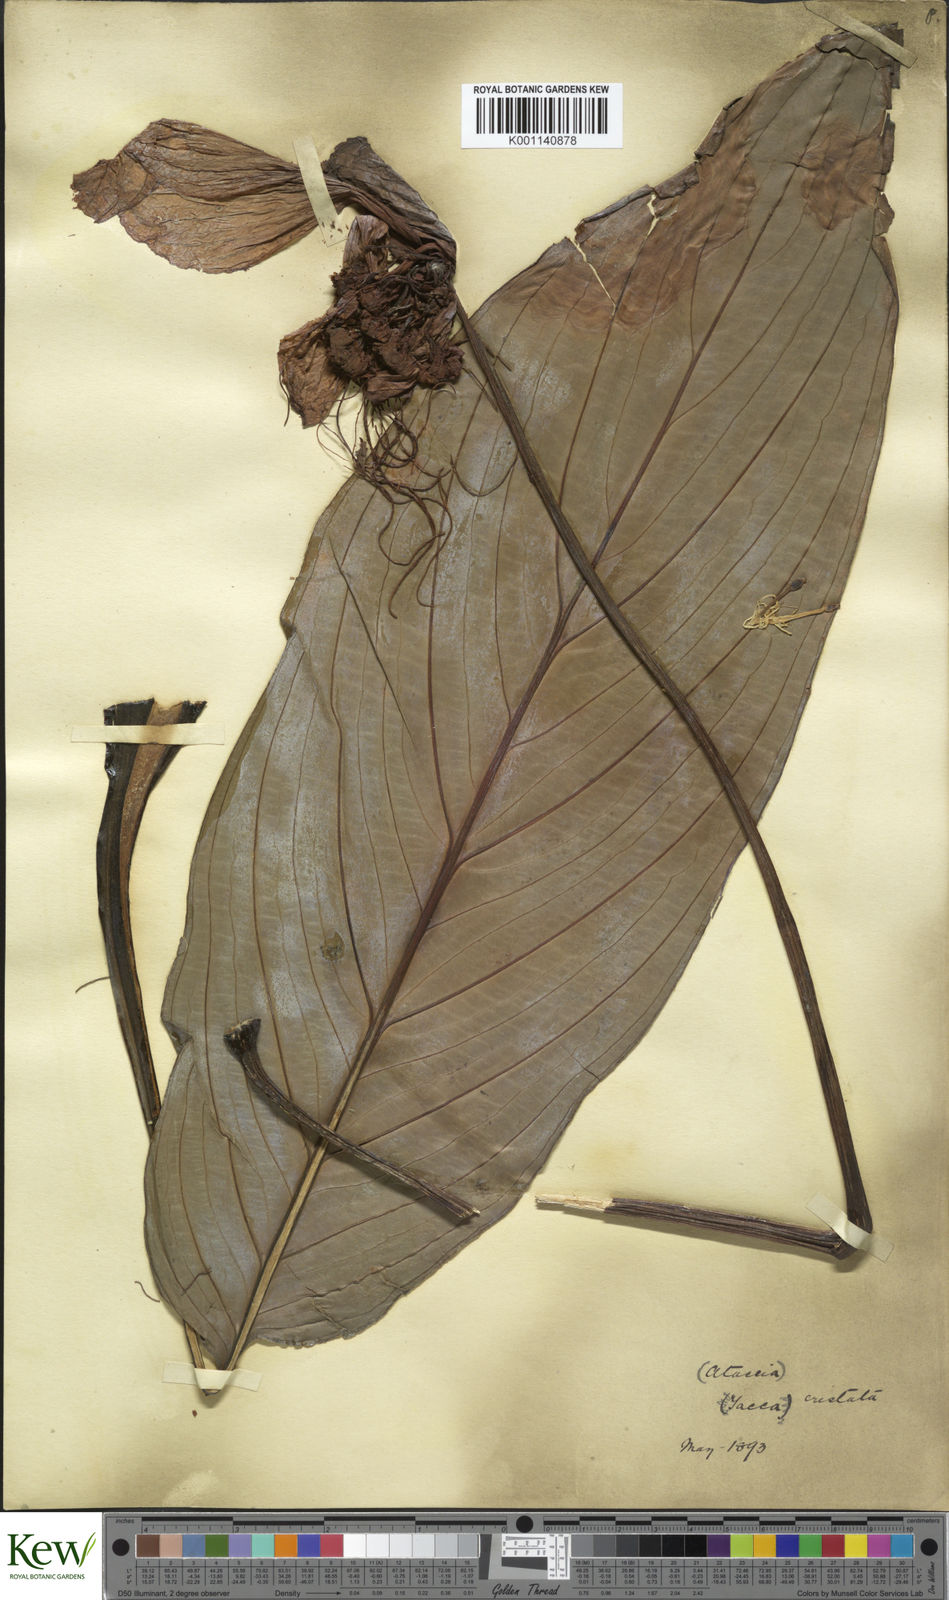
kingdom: Plantae
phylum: Tracheophyta
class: Liliopsida
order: Dioscoreales
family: Dioscoreaceae
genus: Tacca
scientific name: Tacca integrifolia
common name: Batplant
